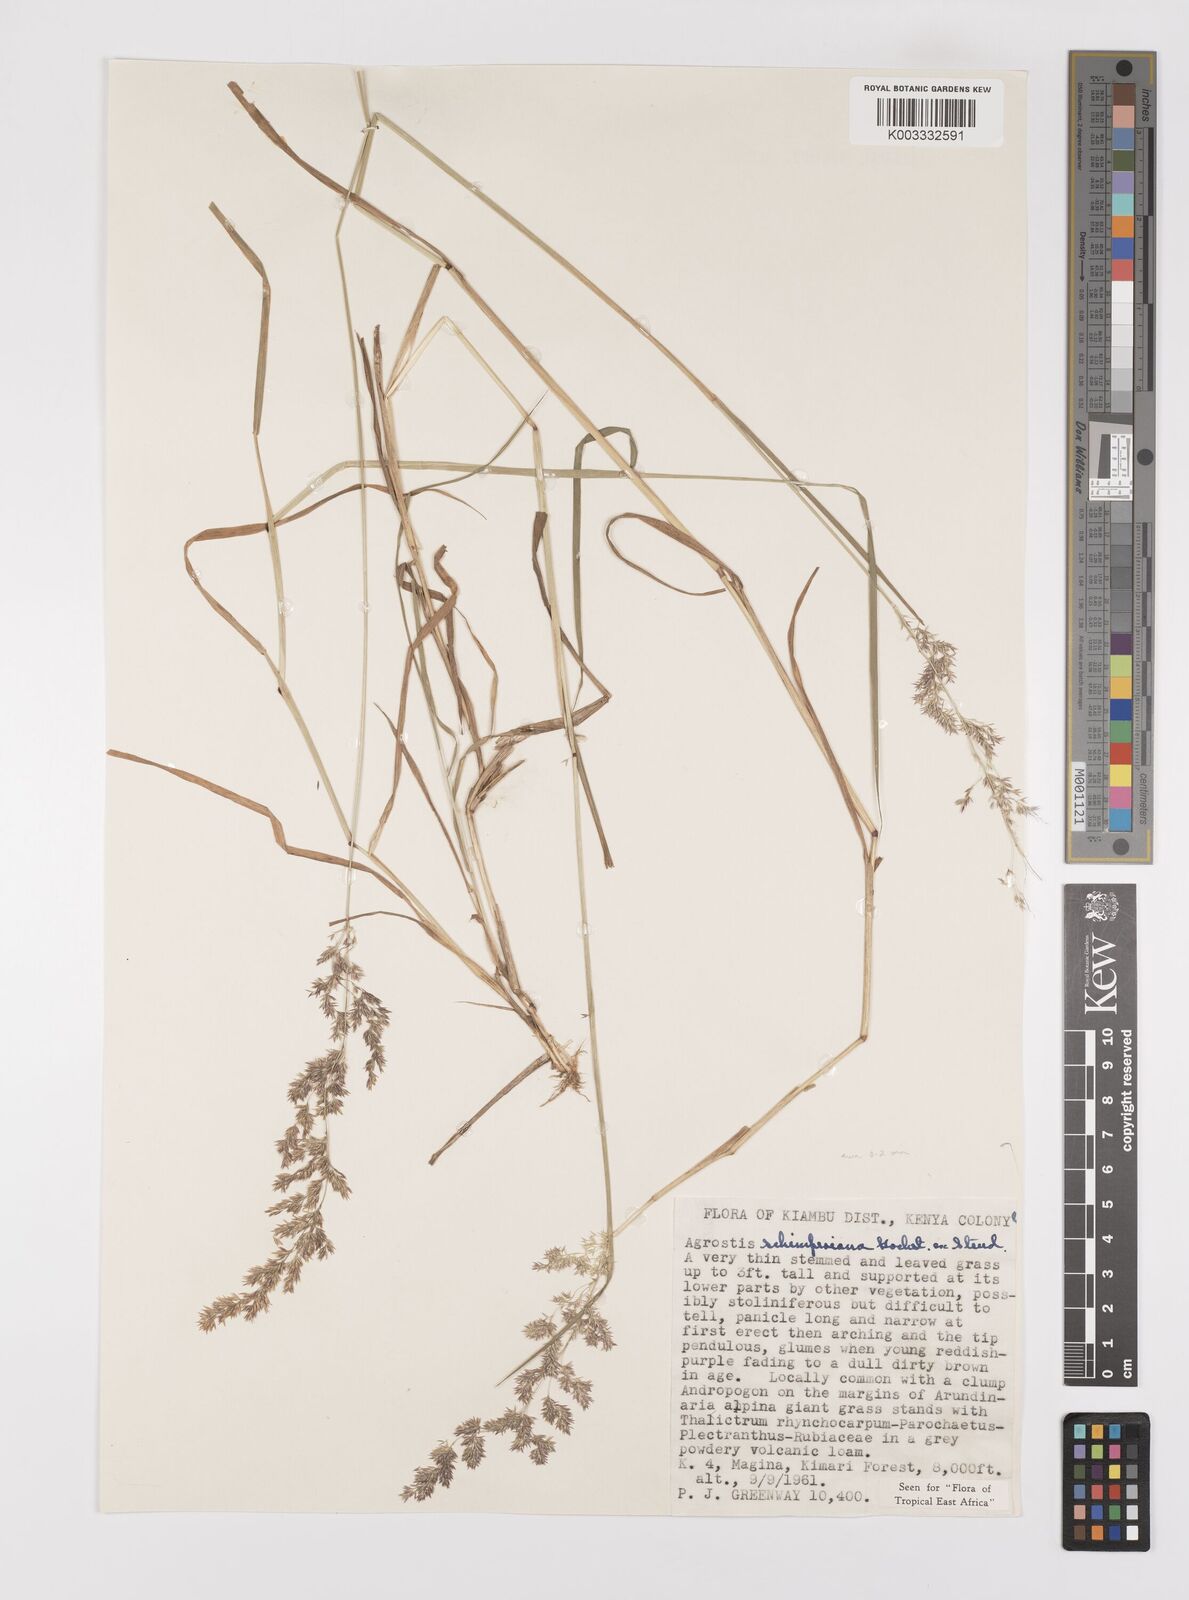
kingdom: Plantae
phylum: Tracheophyta
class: Liliopsida
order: Poales
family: Poaceae
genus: Polypogon
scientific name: Polypogon schimperianus
